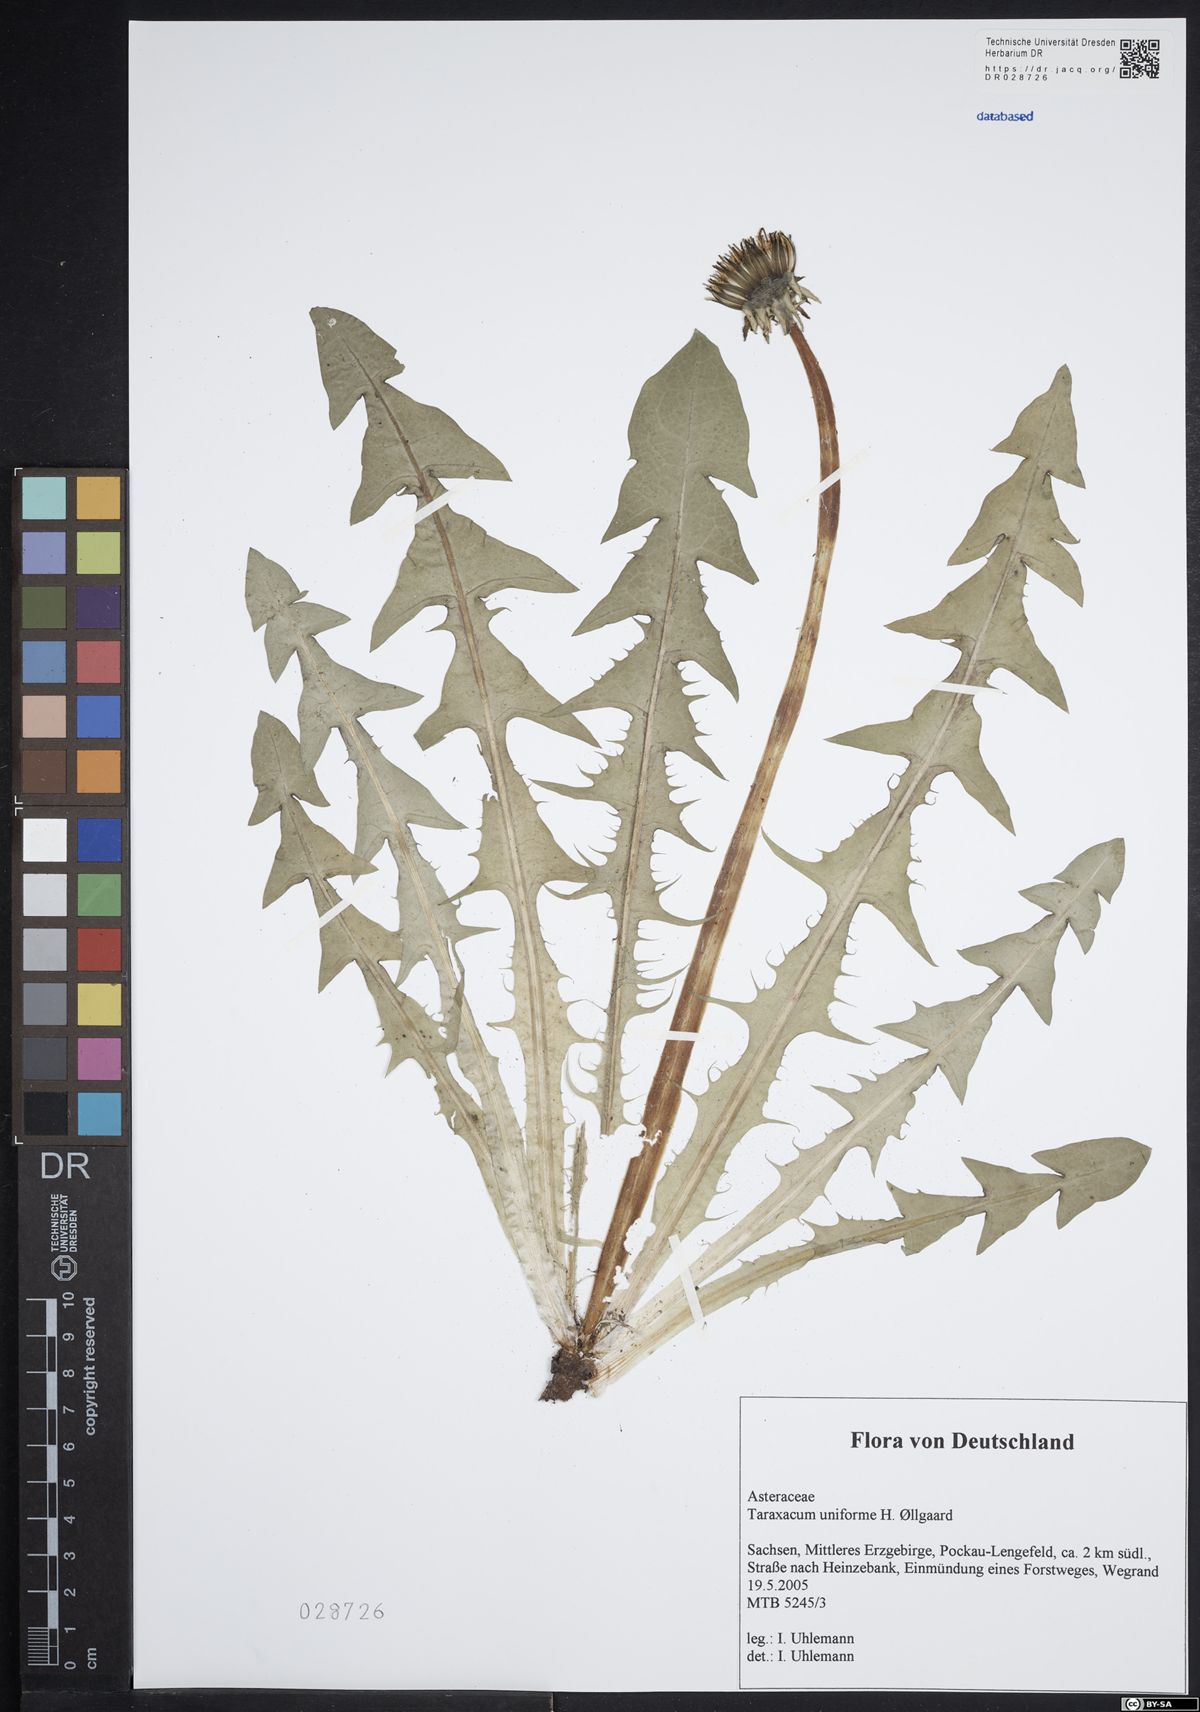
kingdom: Plantae
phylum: Tracheophyta
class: Magnoliopsida
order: Asterales
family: Asteraceae
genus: Taraxacum
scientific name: Taraxacum uniforme
